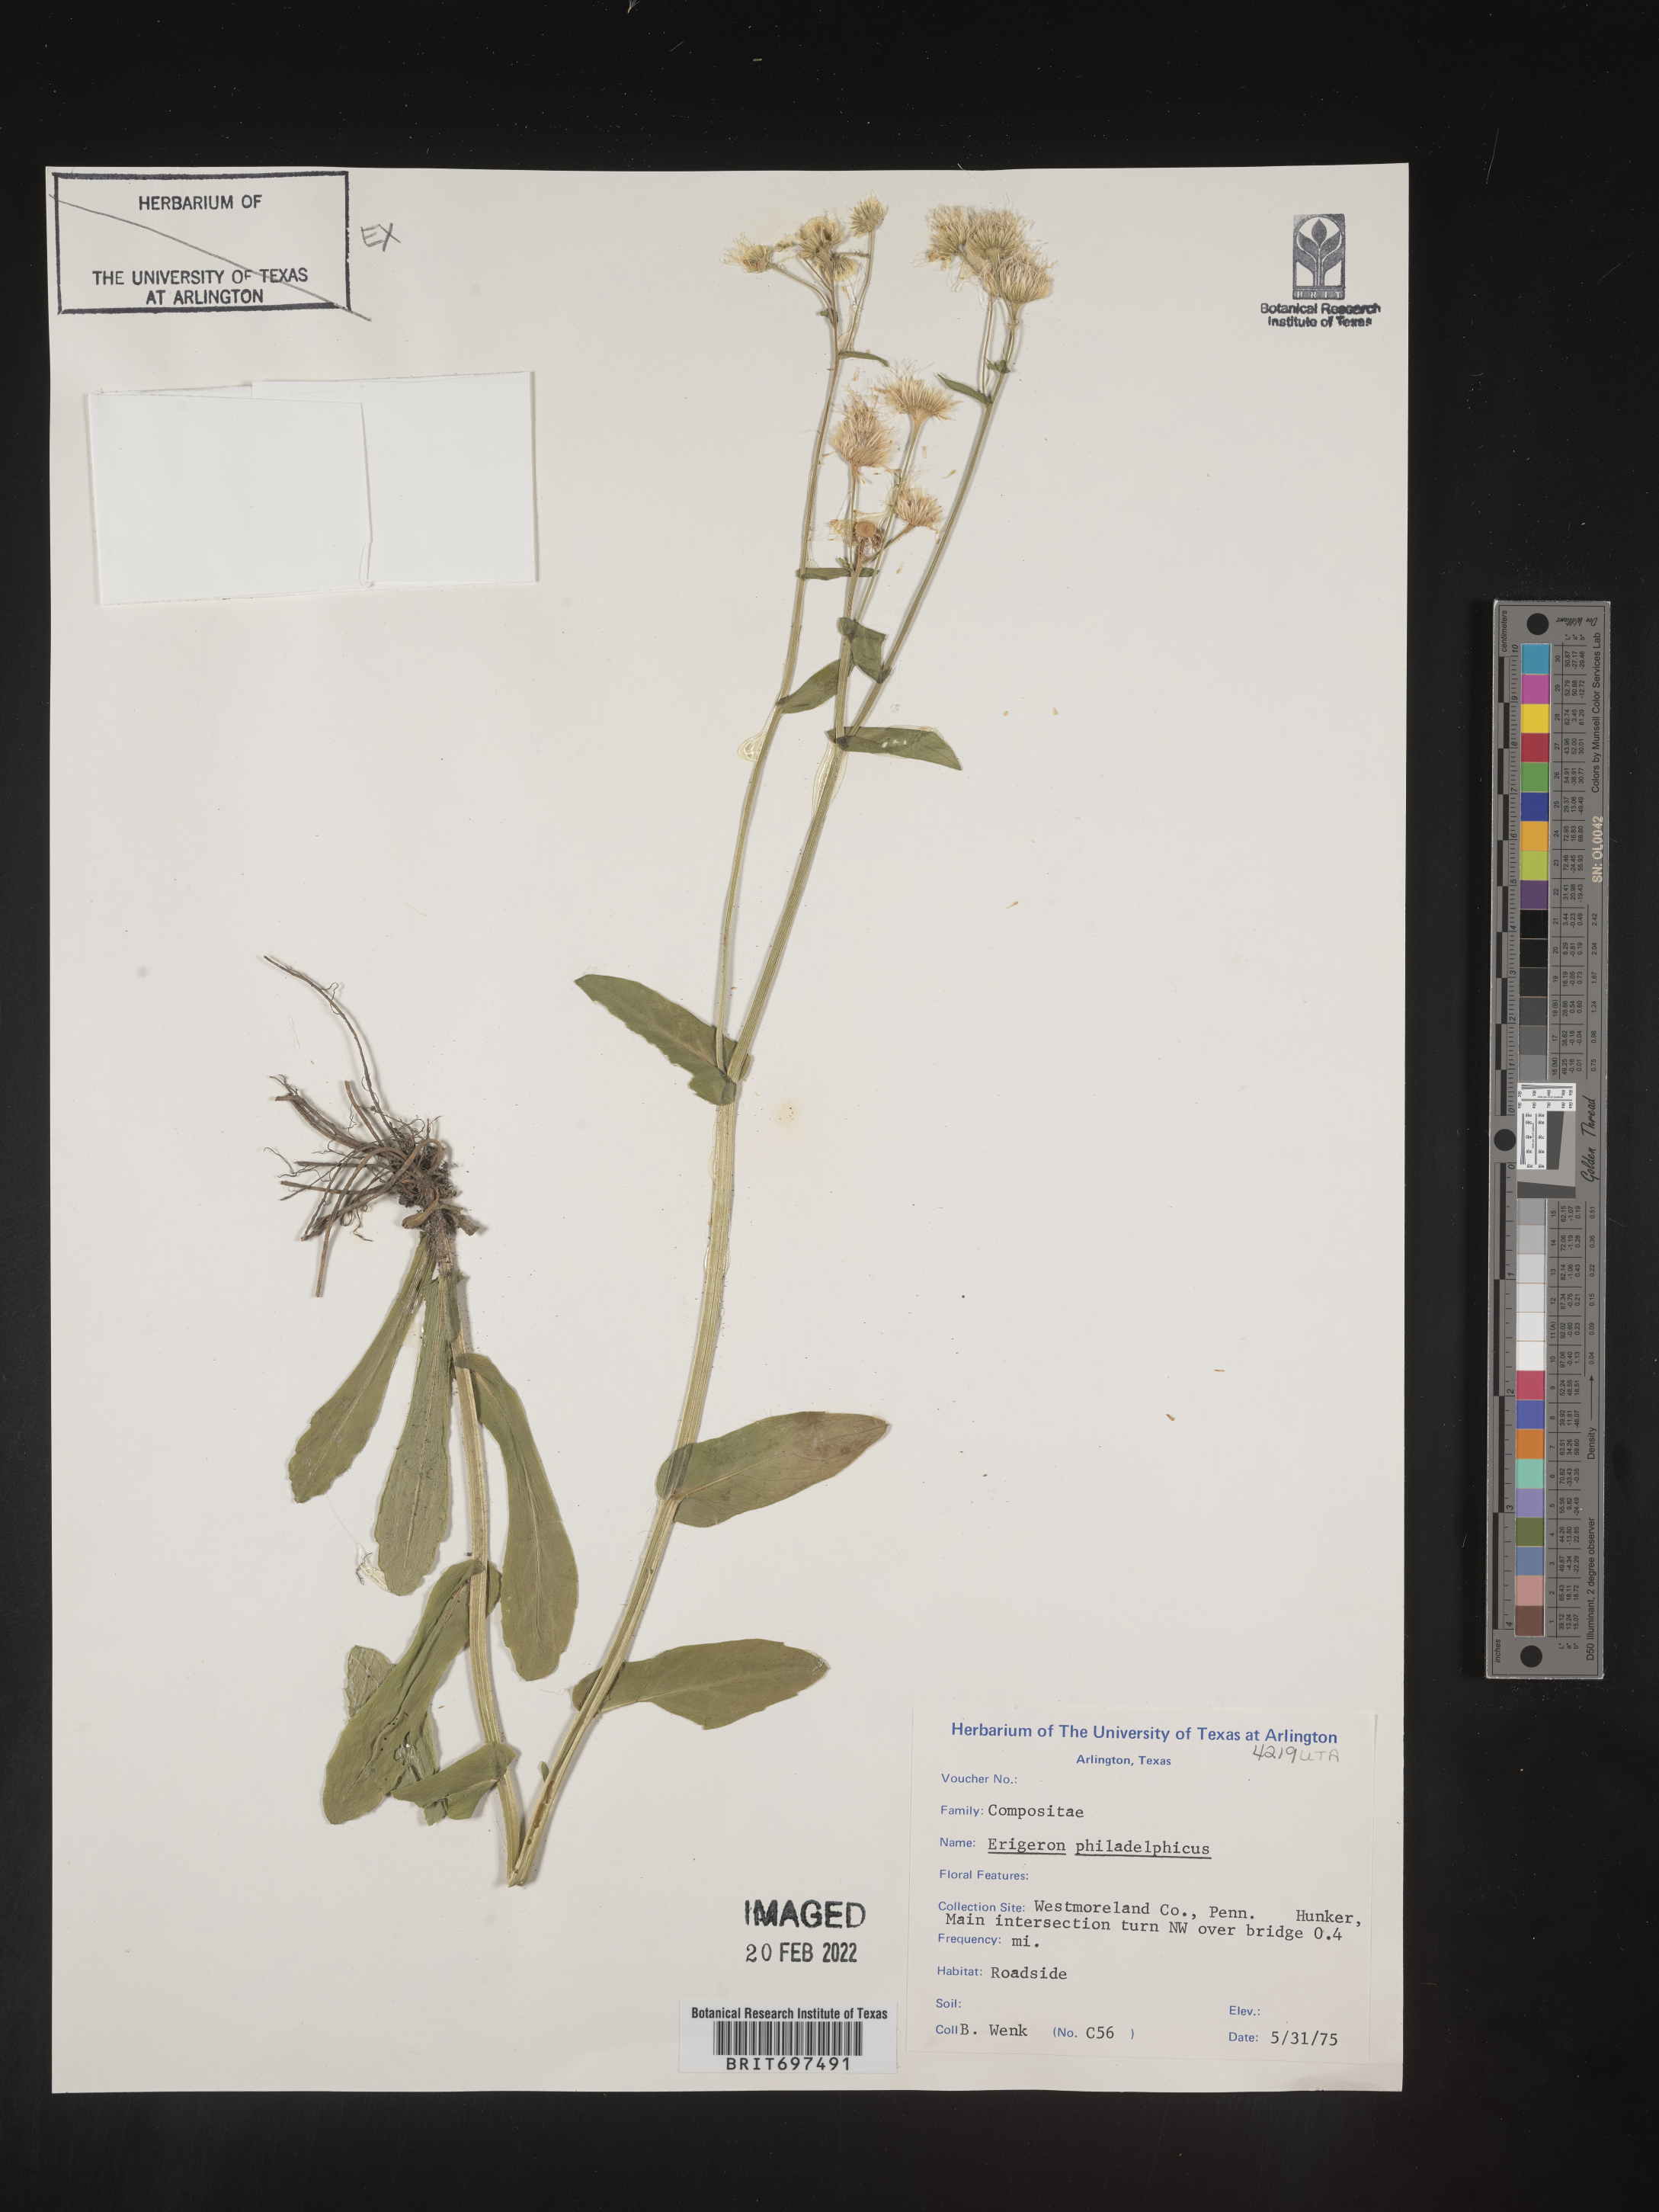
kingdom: Plantae
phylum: Tracheophyta
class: Magnoliopsida
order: Asterales
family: Asteraceae
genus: Erigeron
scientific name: Erigeron philadelphicus
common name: Robin's-plantain
